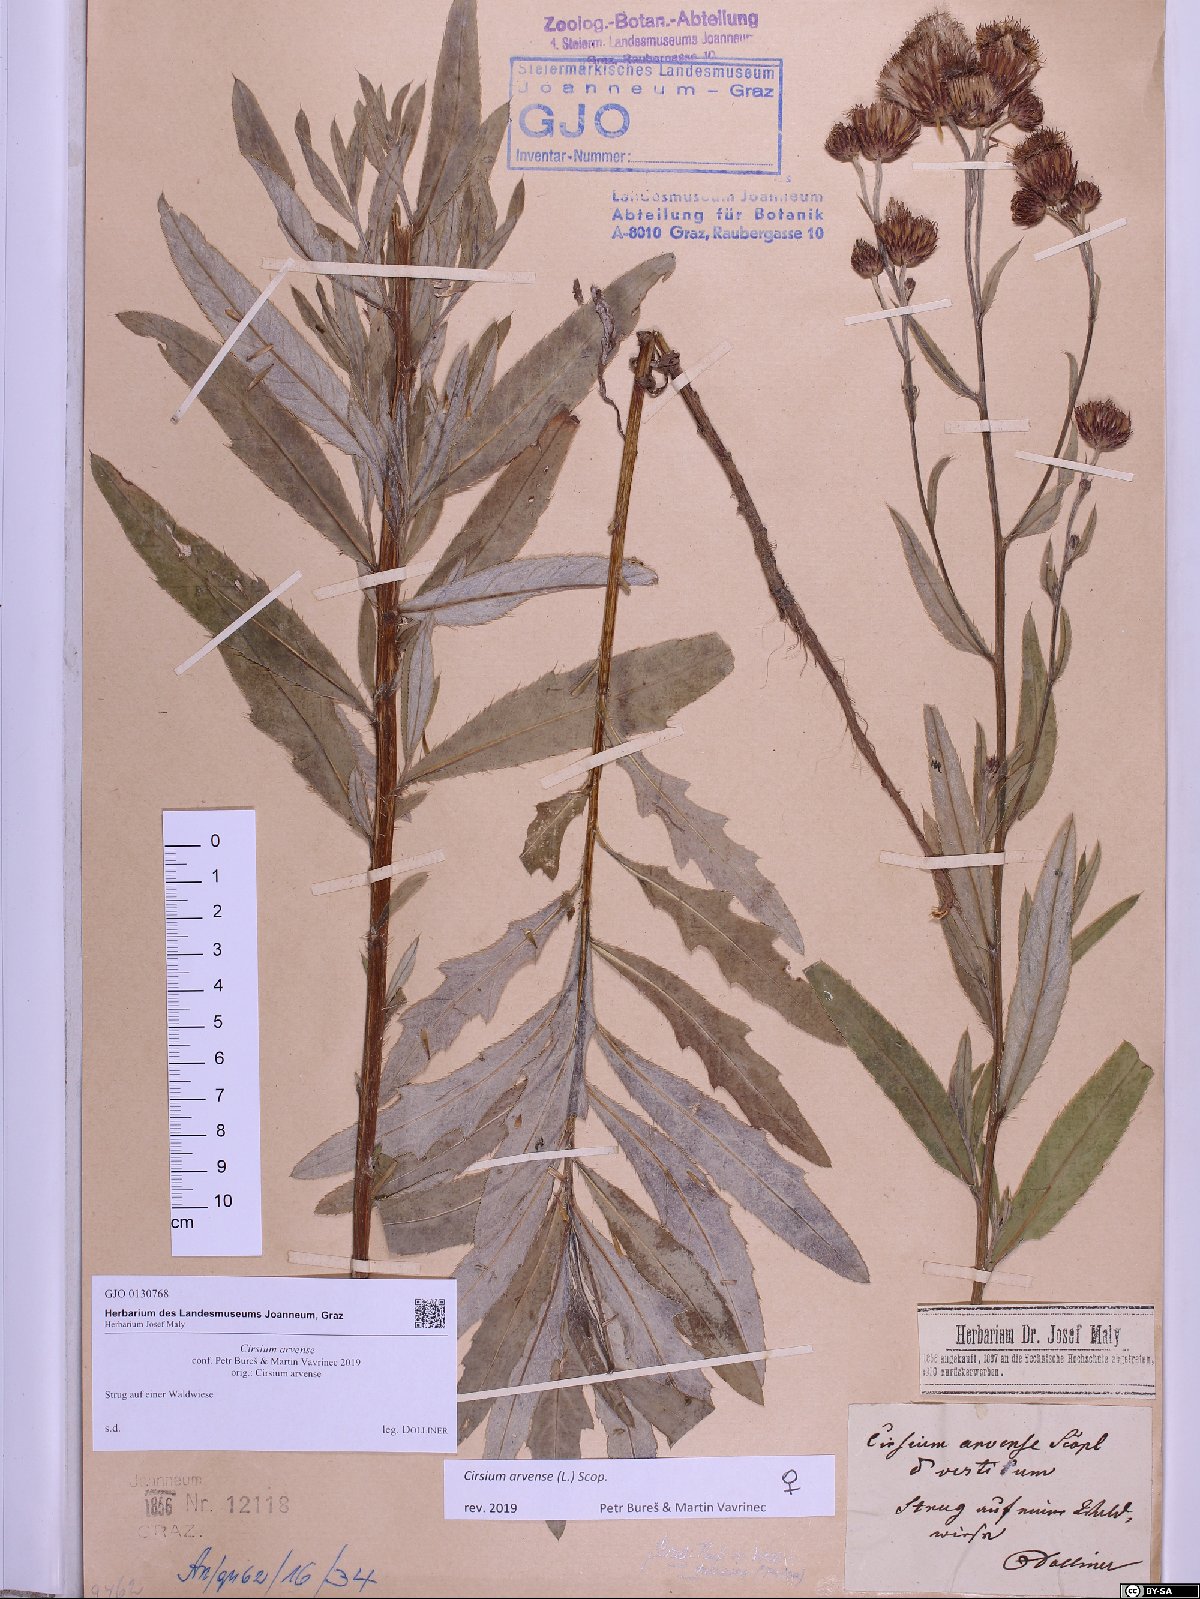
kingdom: Plantae
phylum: Tracheophyta
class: Magnoliopsida
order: Asterales
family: Asteraceae
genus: Cirsium
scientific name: Cirsium arvense
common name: Creeping thistle
